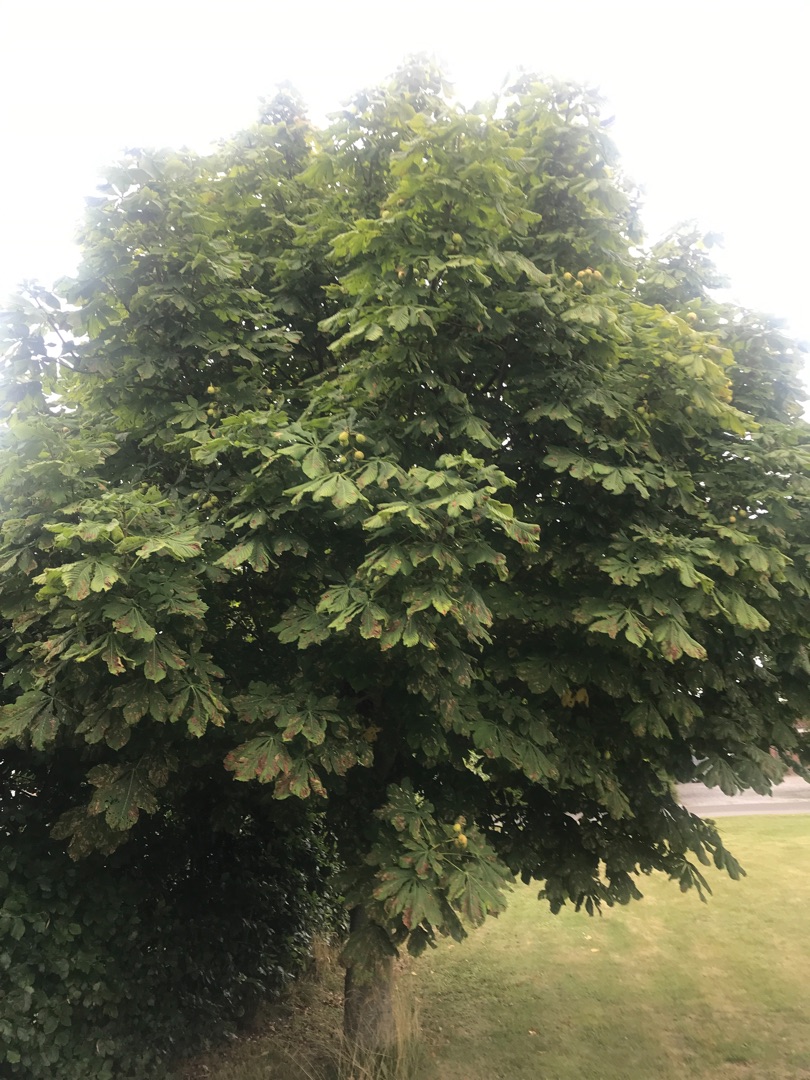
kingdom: Plantae
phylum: Tracheophyta
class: Magnoliopsida
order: Sapindales
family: Sapindaceae
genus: Aesculus
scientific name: Aesculus hippocastanum
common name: Hestekastanie
